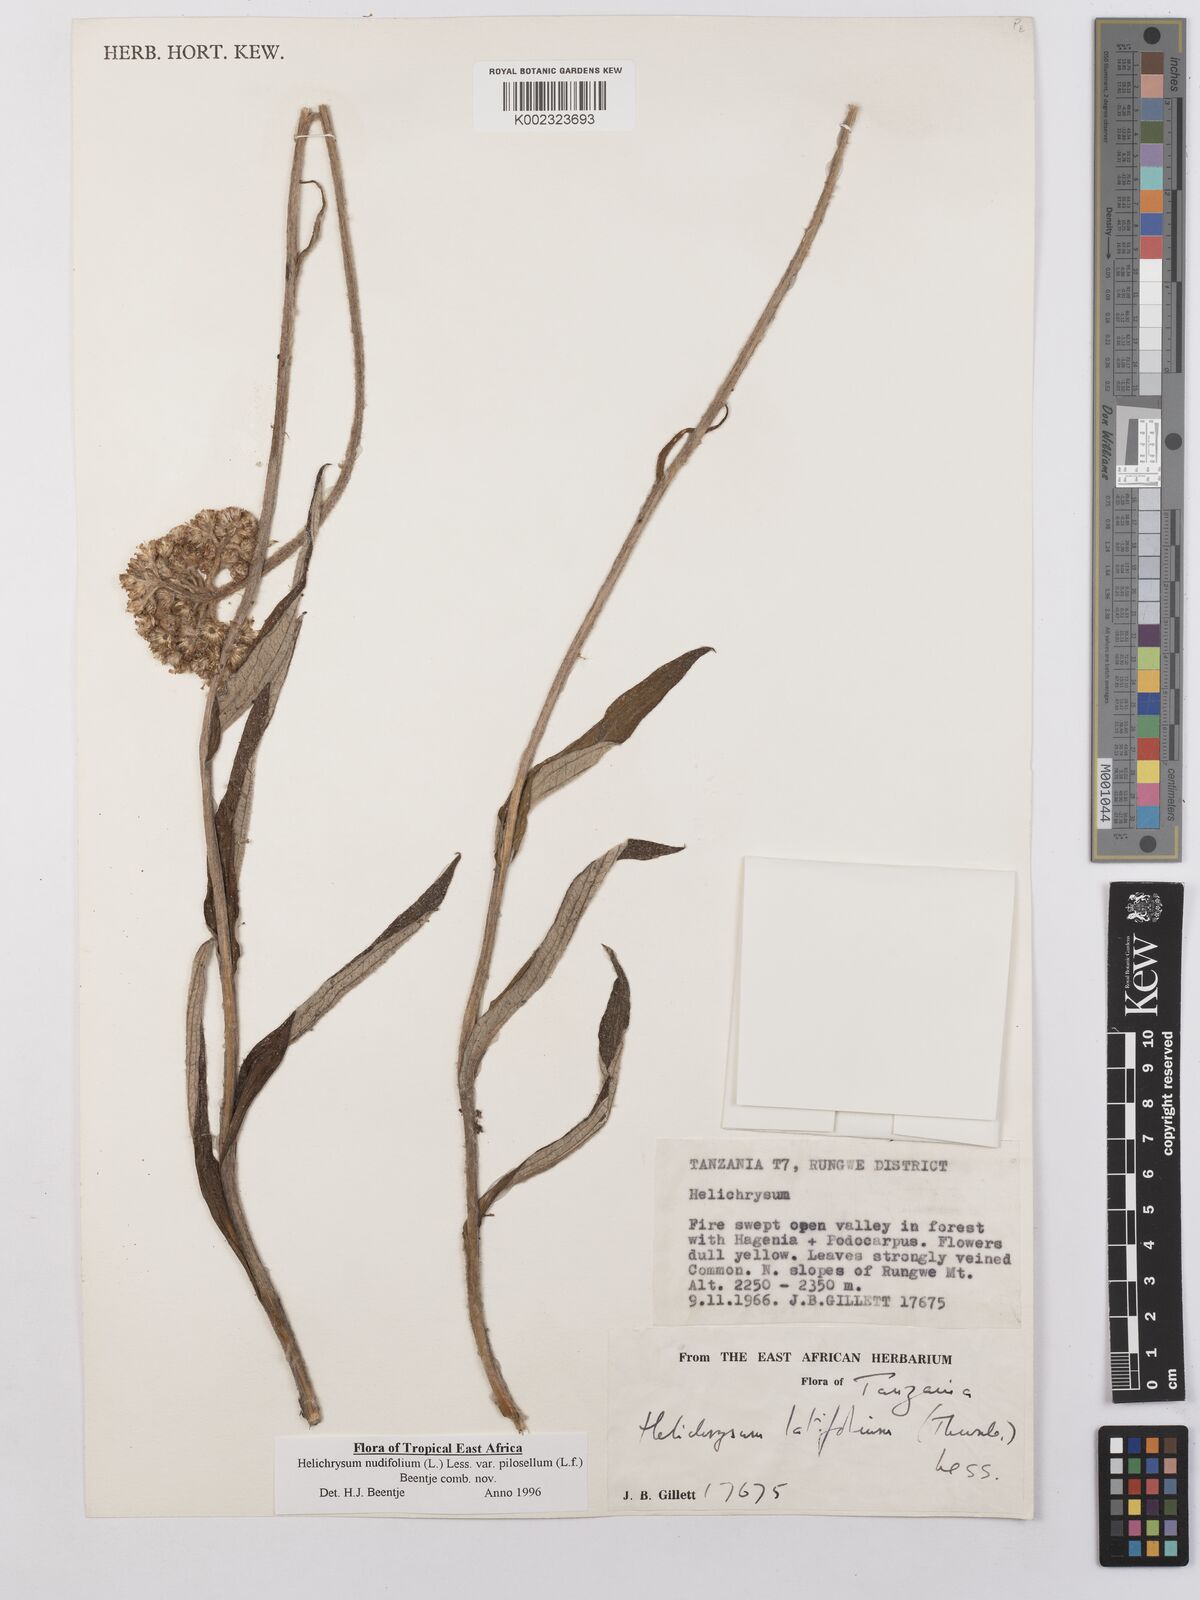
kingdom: Plantae
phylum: Tracheophyta
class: Magnoliopsida
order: Asterales
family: Asteraceae
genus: Helichrysum
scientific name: Helichrysum nudifolium
